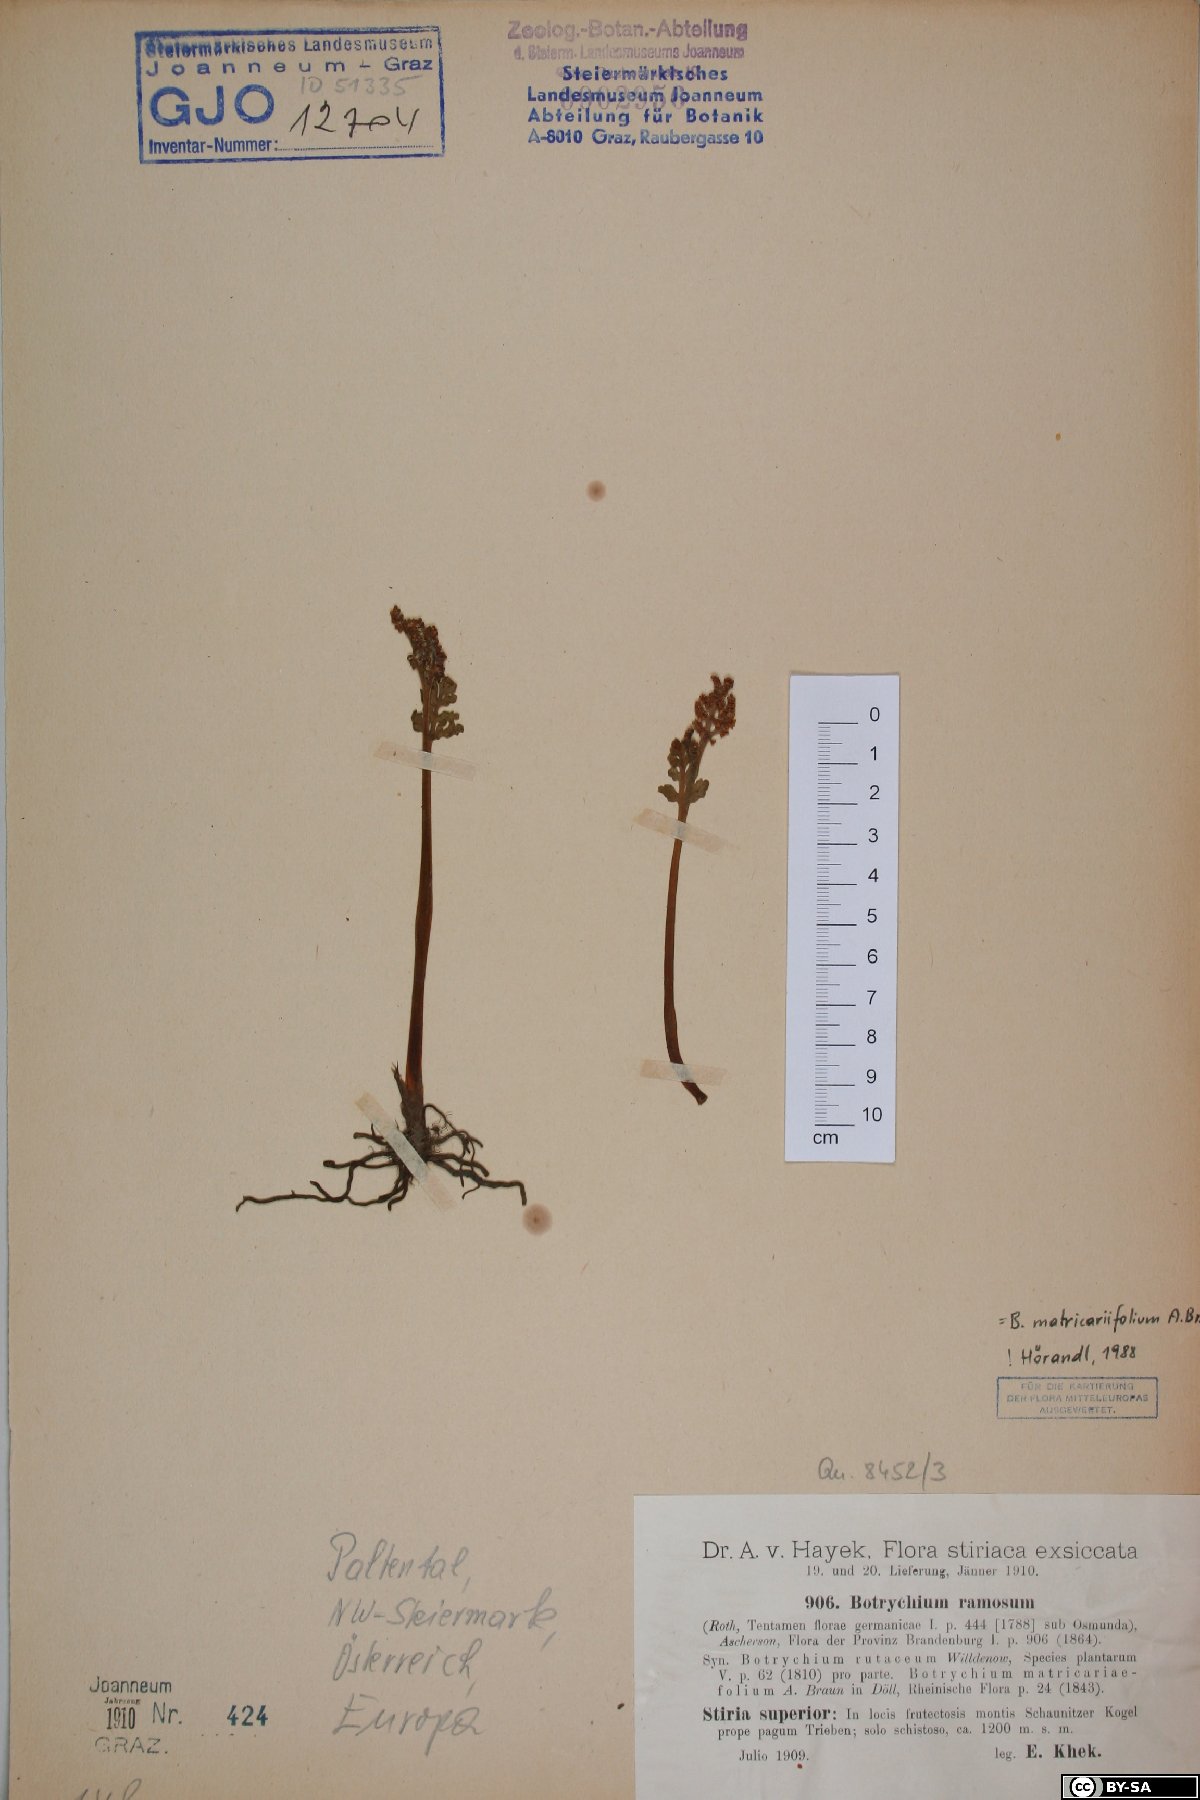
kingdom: Plantae
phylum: Tracheophyta
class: Polypodiopsida
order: Ophioglossales
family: Ophioglossaceae
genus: Botrychium
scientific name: Botrychium matricariifolium
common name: Branched moonwort
